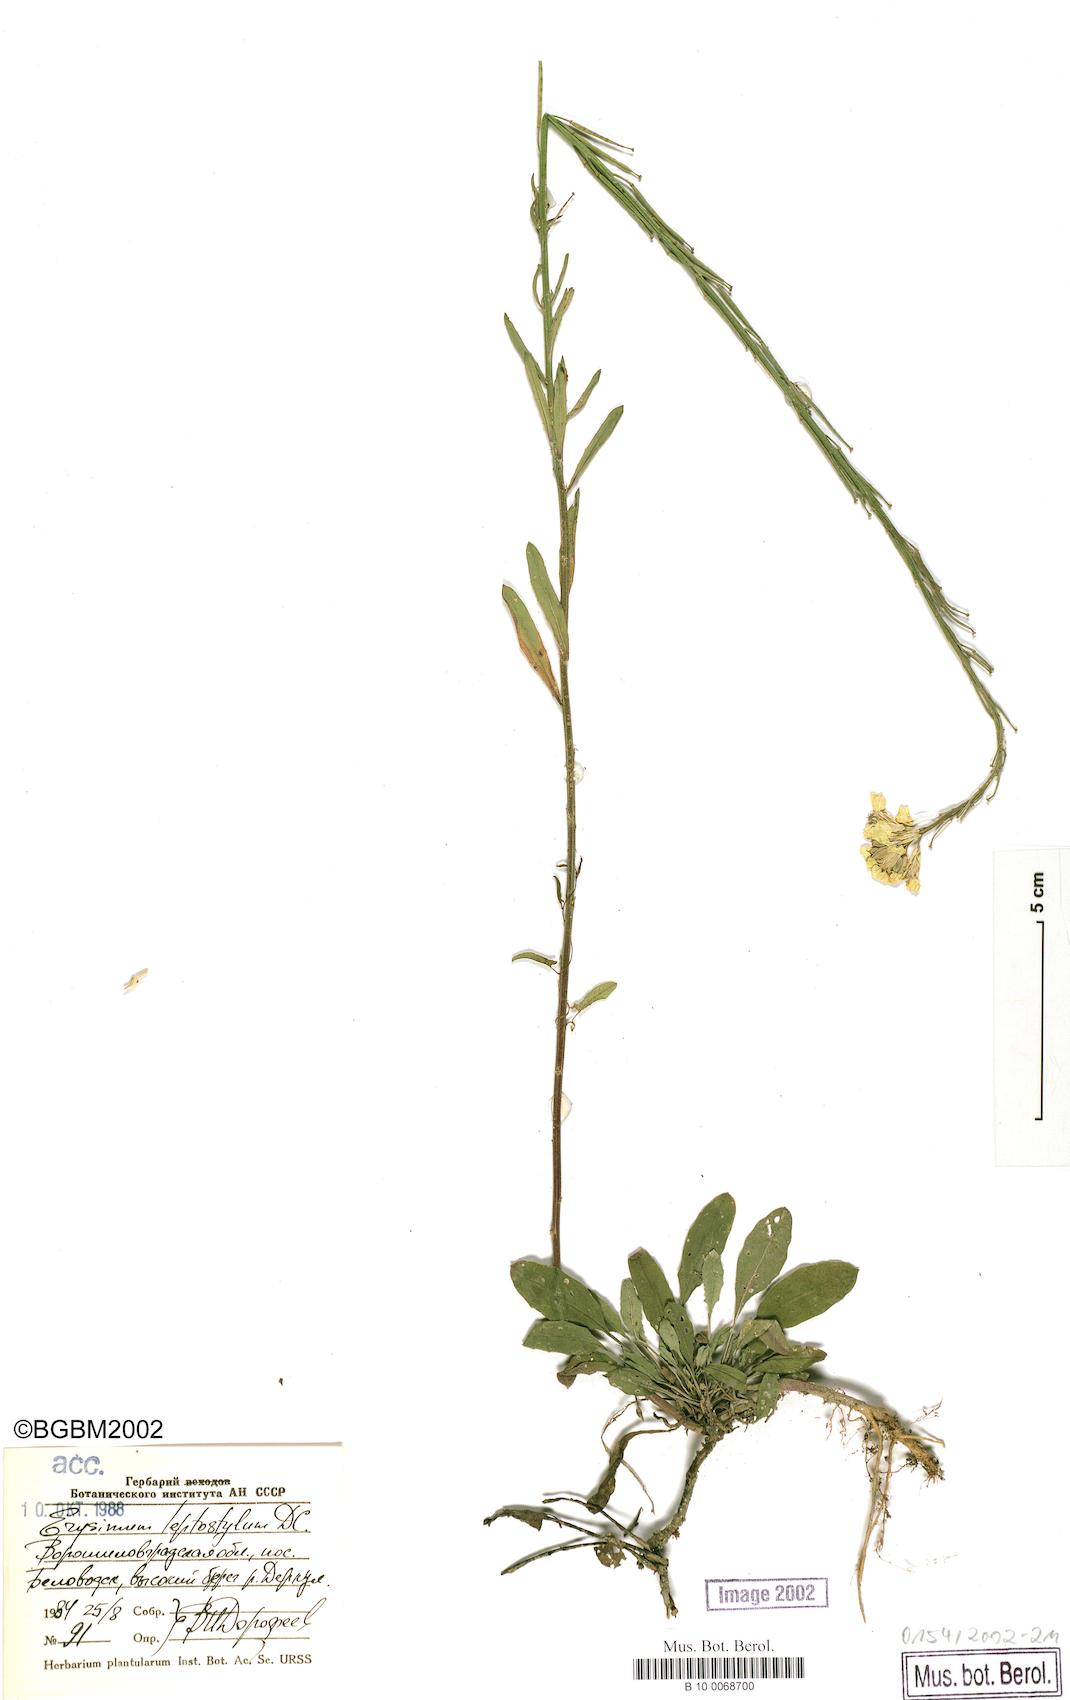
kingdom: Plantae
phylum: Tracheophyta
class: Magnoliopsida
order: Brassicales
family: Brassicaceae
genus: Erysimum
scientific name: Erysimum leptostylum
